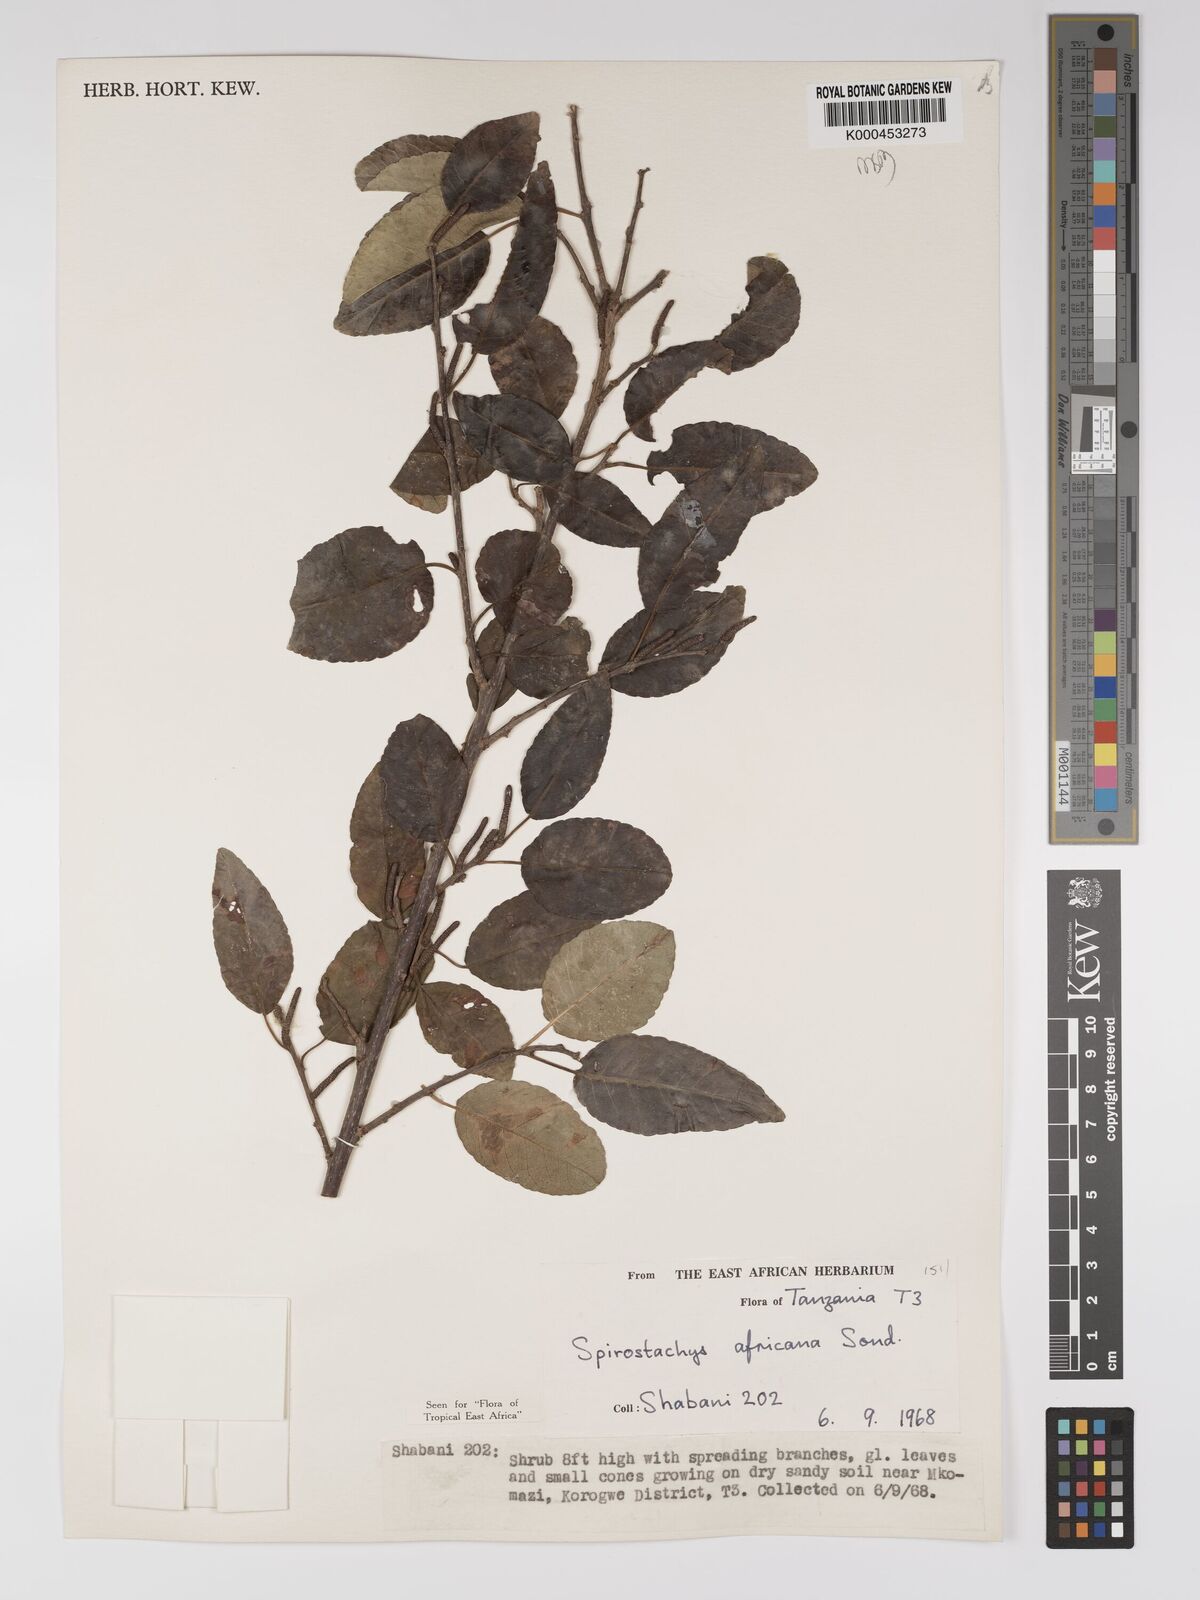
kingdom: Plantae
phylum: Tracheophyta
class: Magnoliopsida
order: Malpighiales
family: Euphorbiaceae
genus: Spirostachys
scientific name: Spirostachys africana
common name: Tamboti
